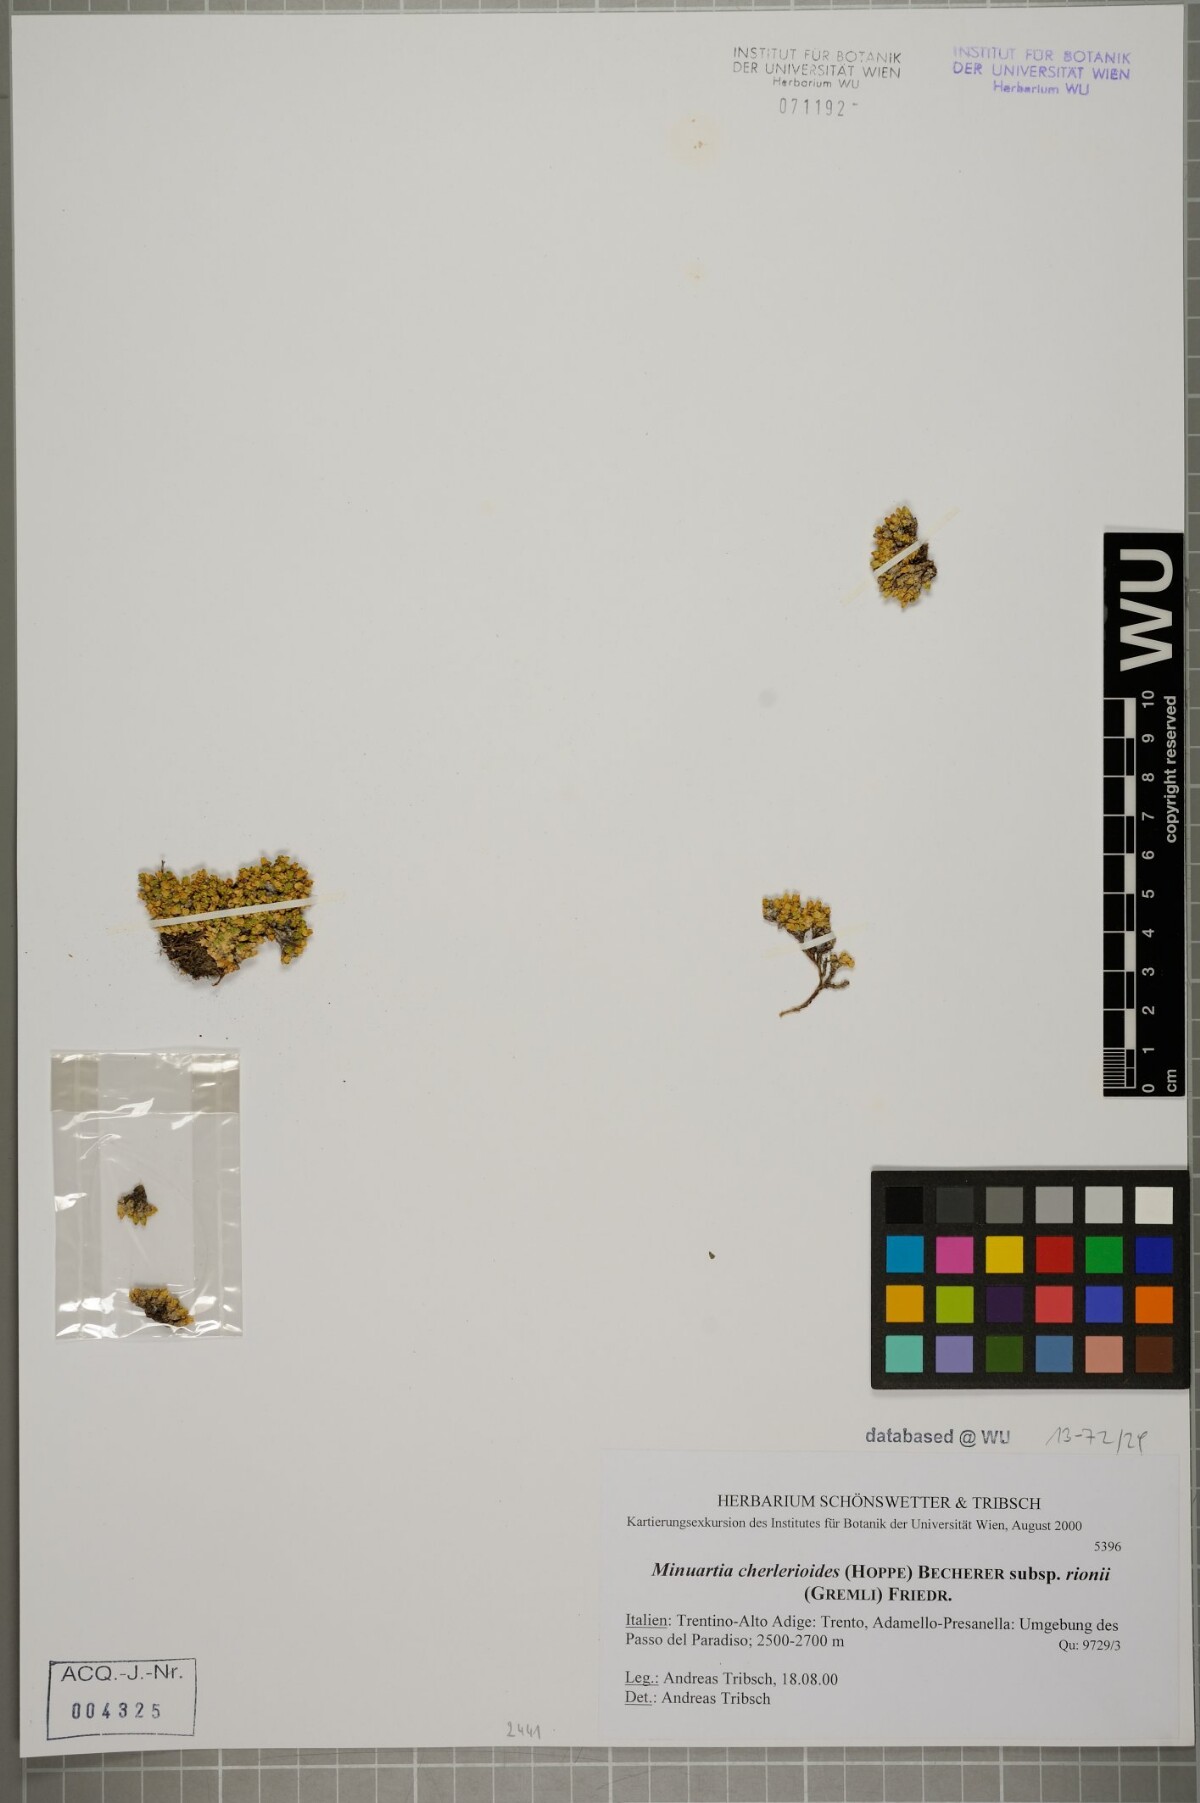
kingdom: Plantae
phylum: Tracheophyta
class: Magnoliopsida
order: Caryophyllales
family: Caryophyllaceae
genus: Facchinia
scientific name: Facchinia herniarioides
